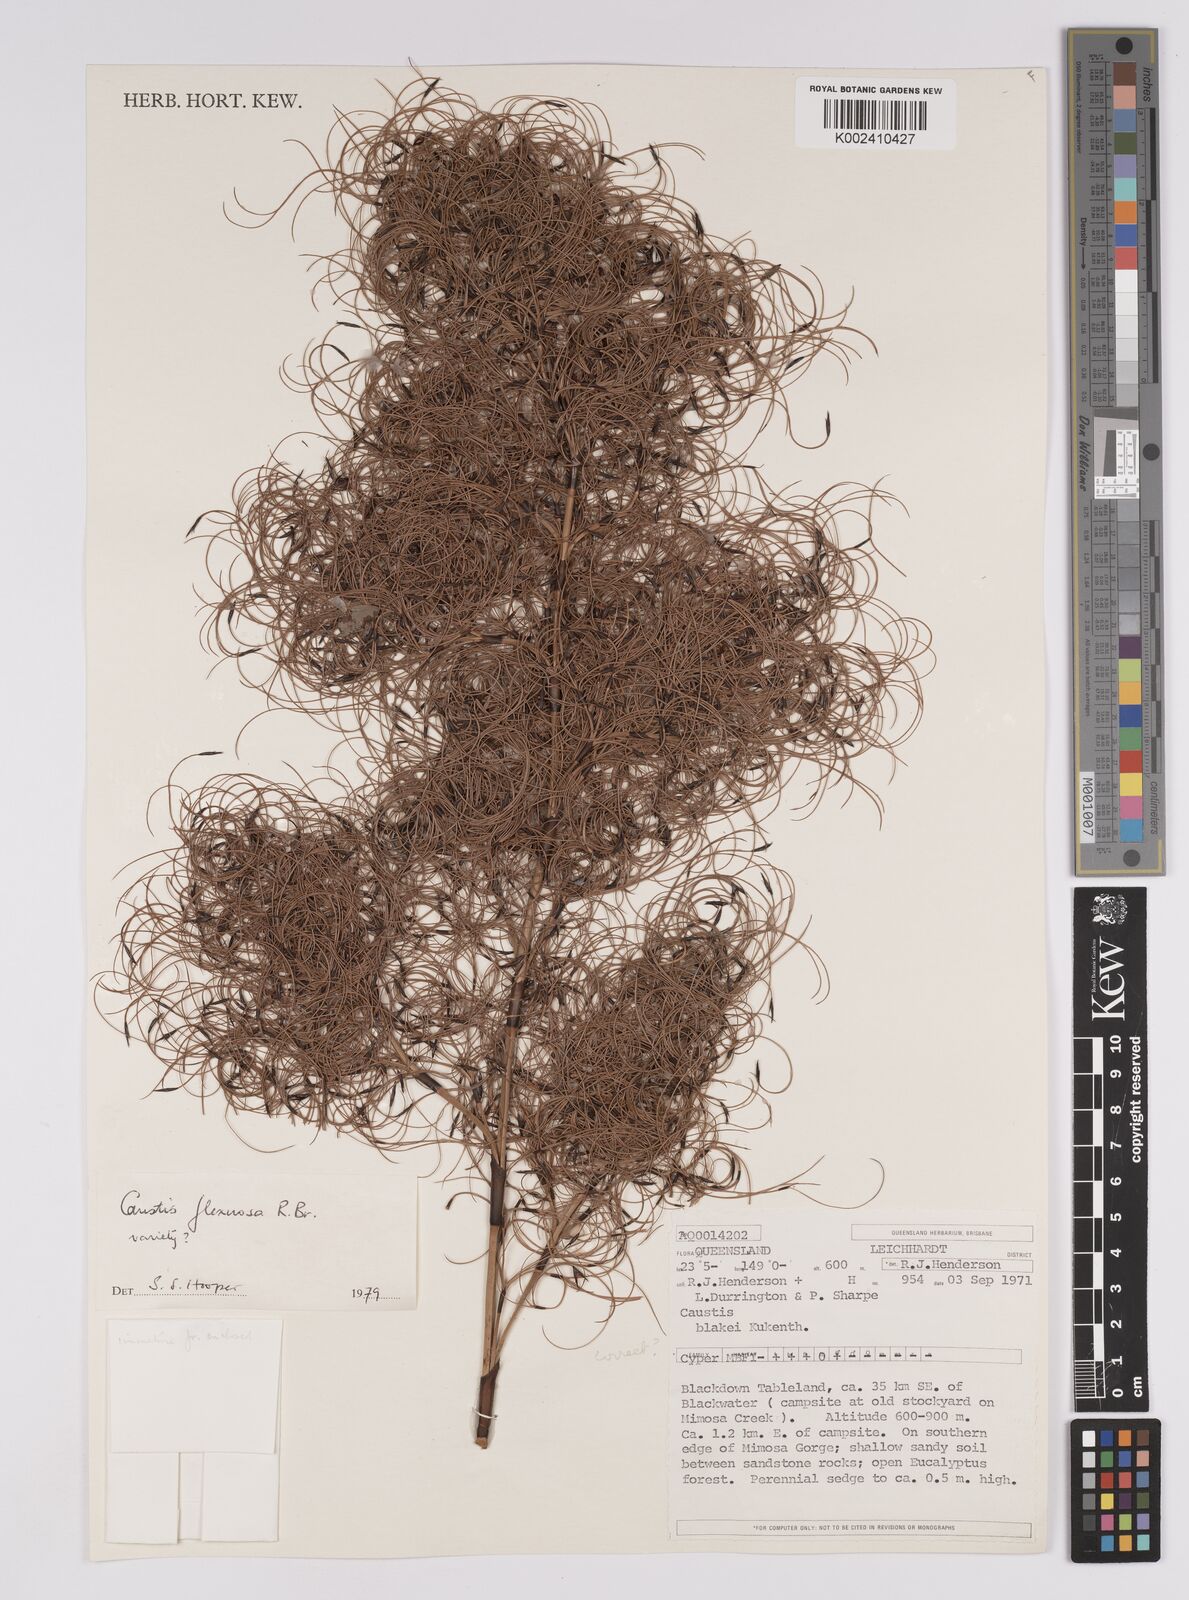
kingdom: Plantae
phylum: Tracheophyta
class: Liliopsida
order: Poales
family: Cyperaceae
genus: Caustis
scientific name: Caustis flexuosa
